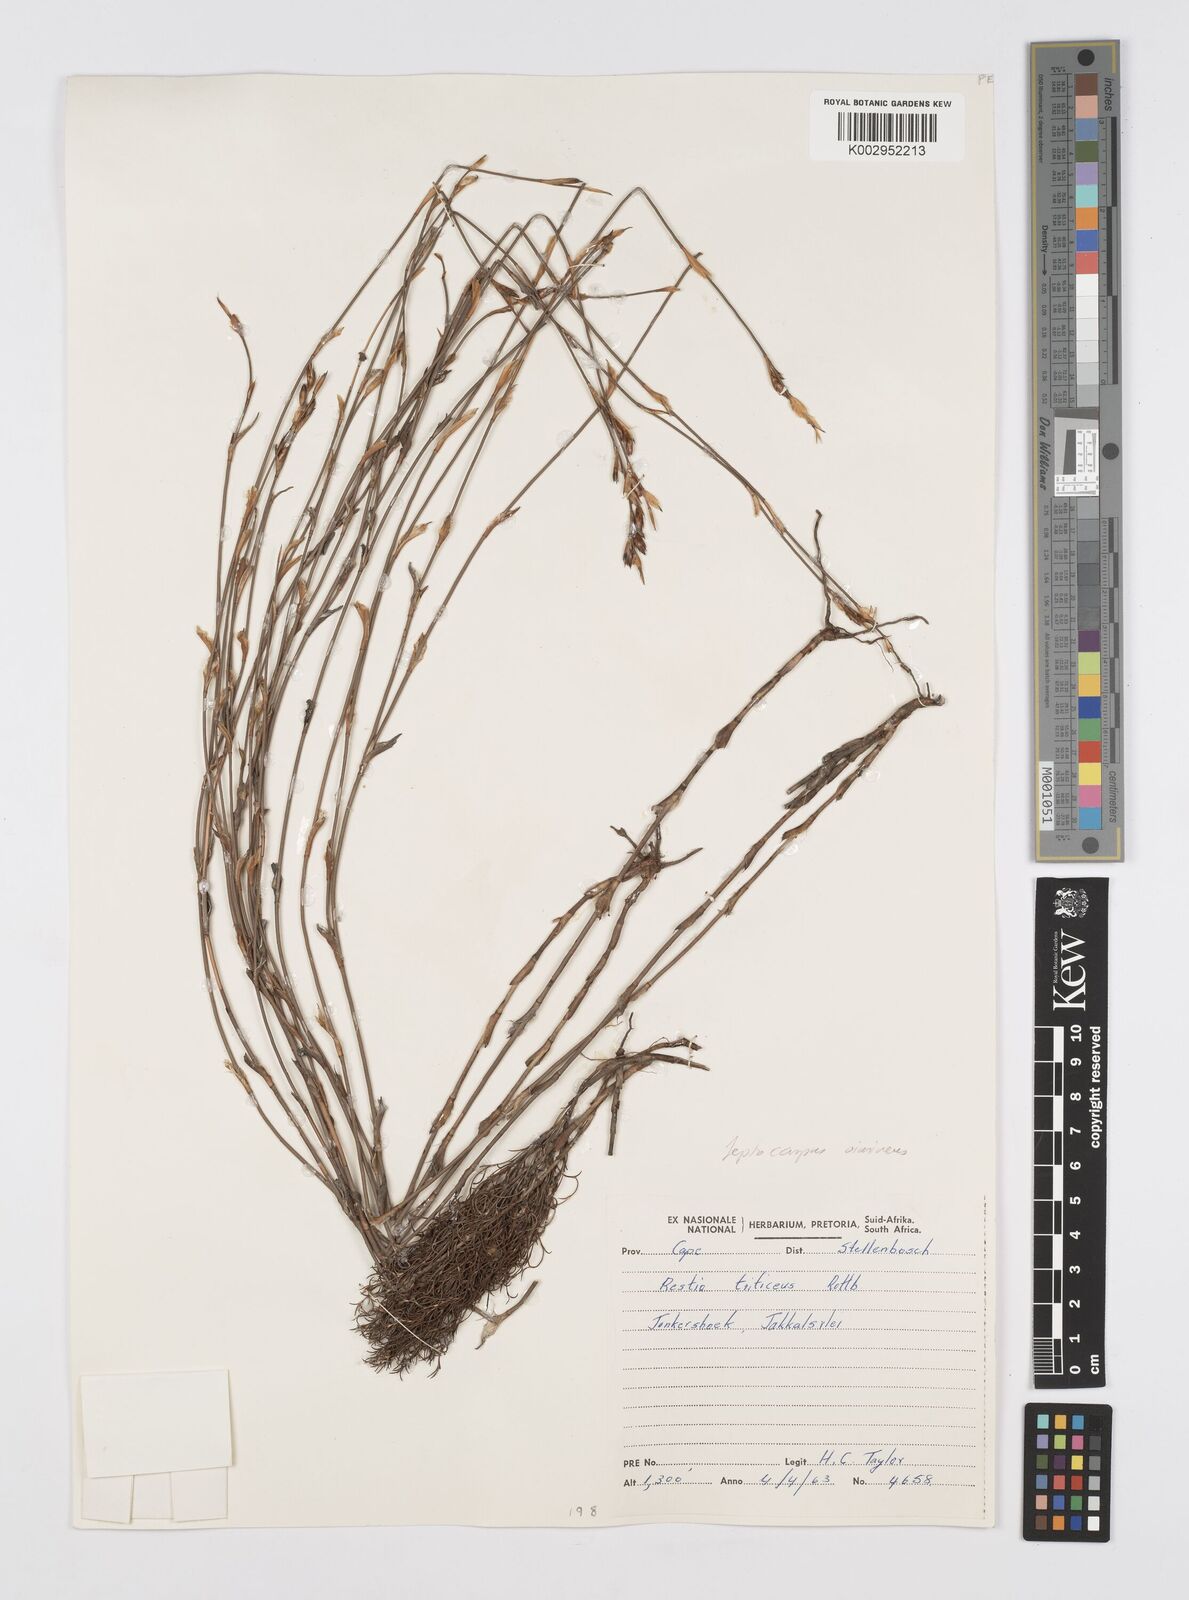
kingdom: Plantae
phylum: Tracheophyta
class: Liliopsida
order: Poales
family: Restionaceae
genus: Restio
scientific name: Restio vimineus
